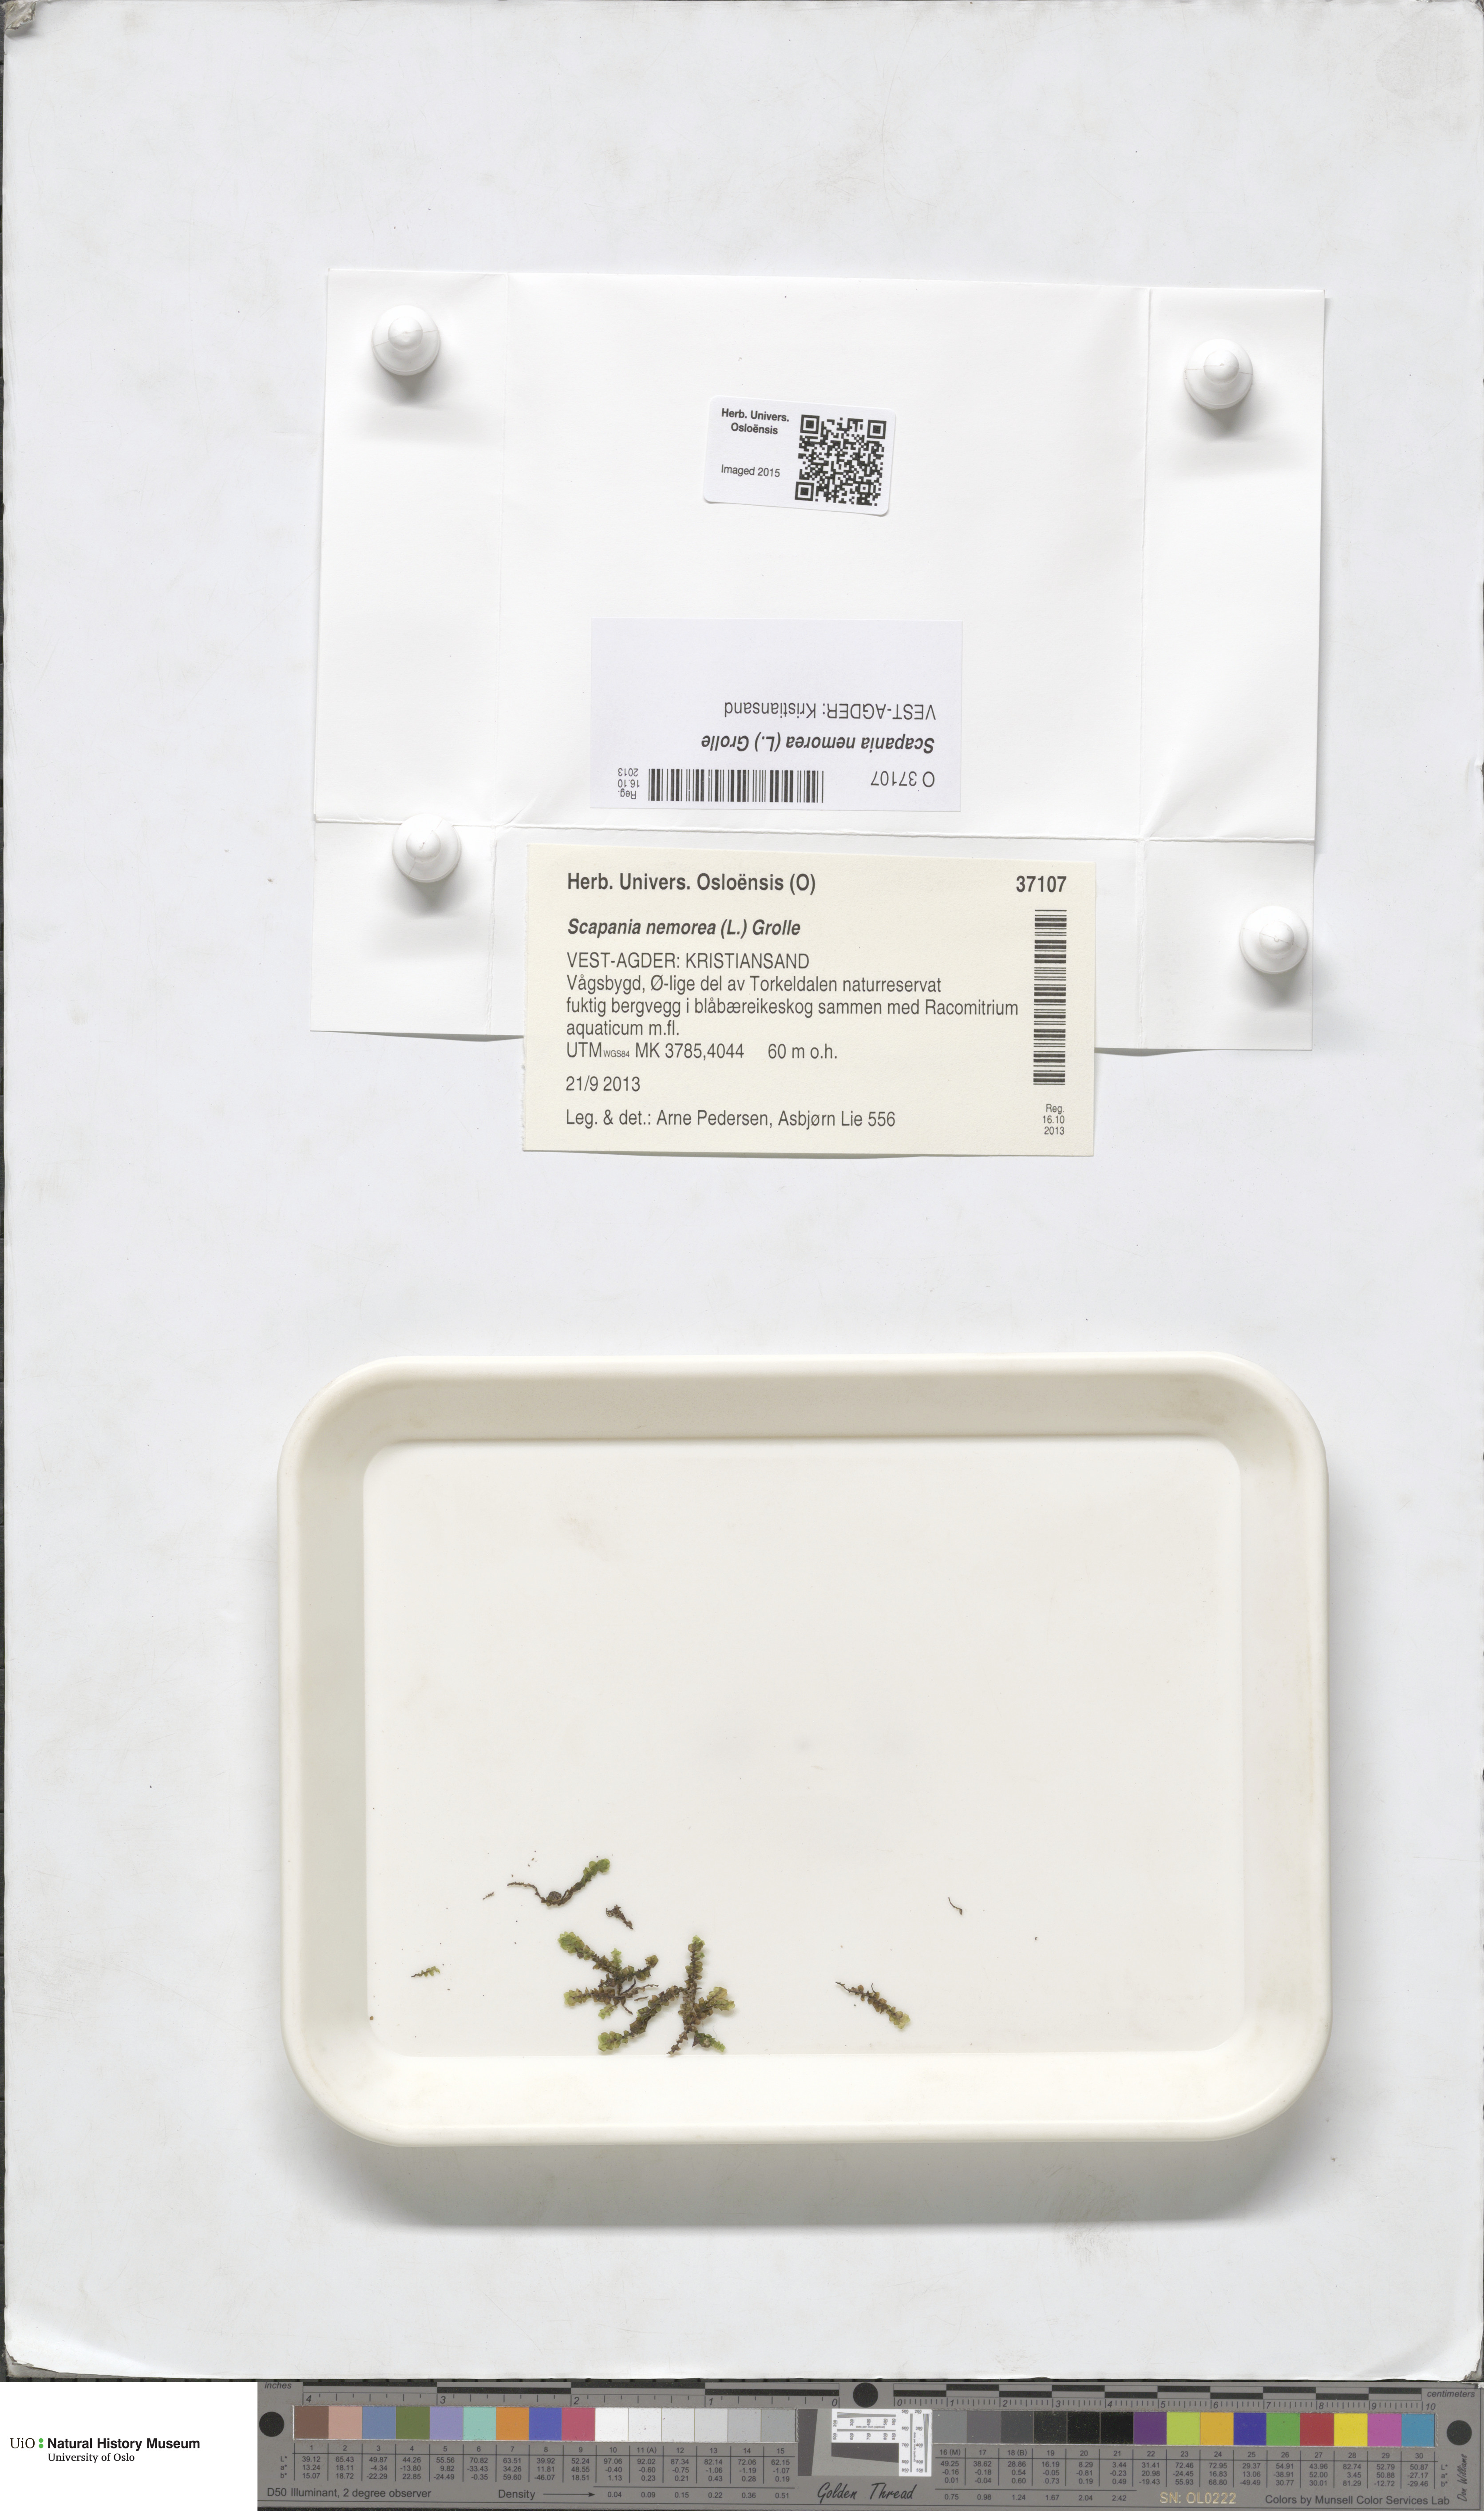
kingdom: Plantae
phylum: Marchantiophyta
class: Jungermanniopsida
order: Jungermanniales
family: Scapaniaceae
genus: Scapania
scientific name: Scapania nemorea
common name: Grove earwort
